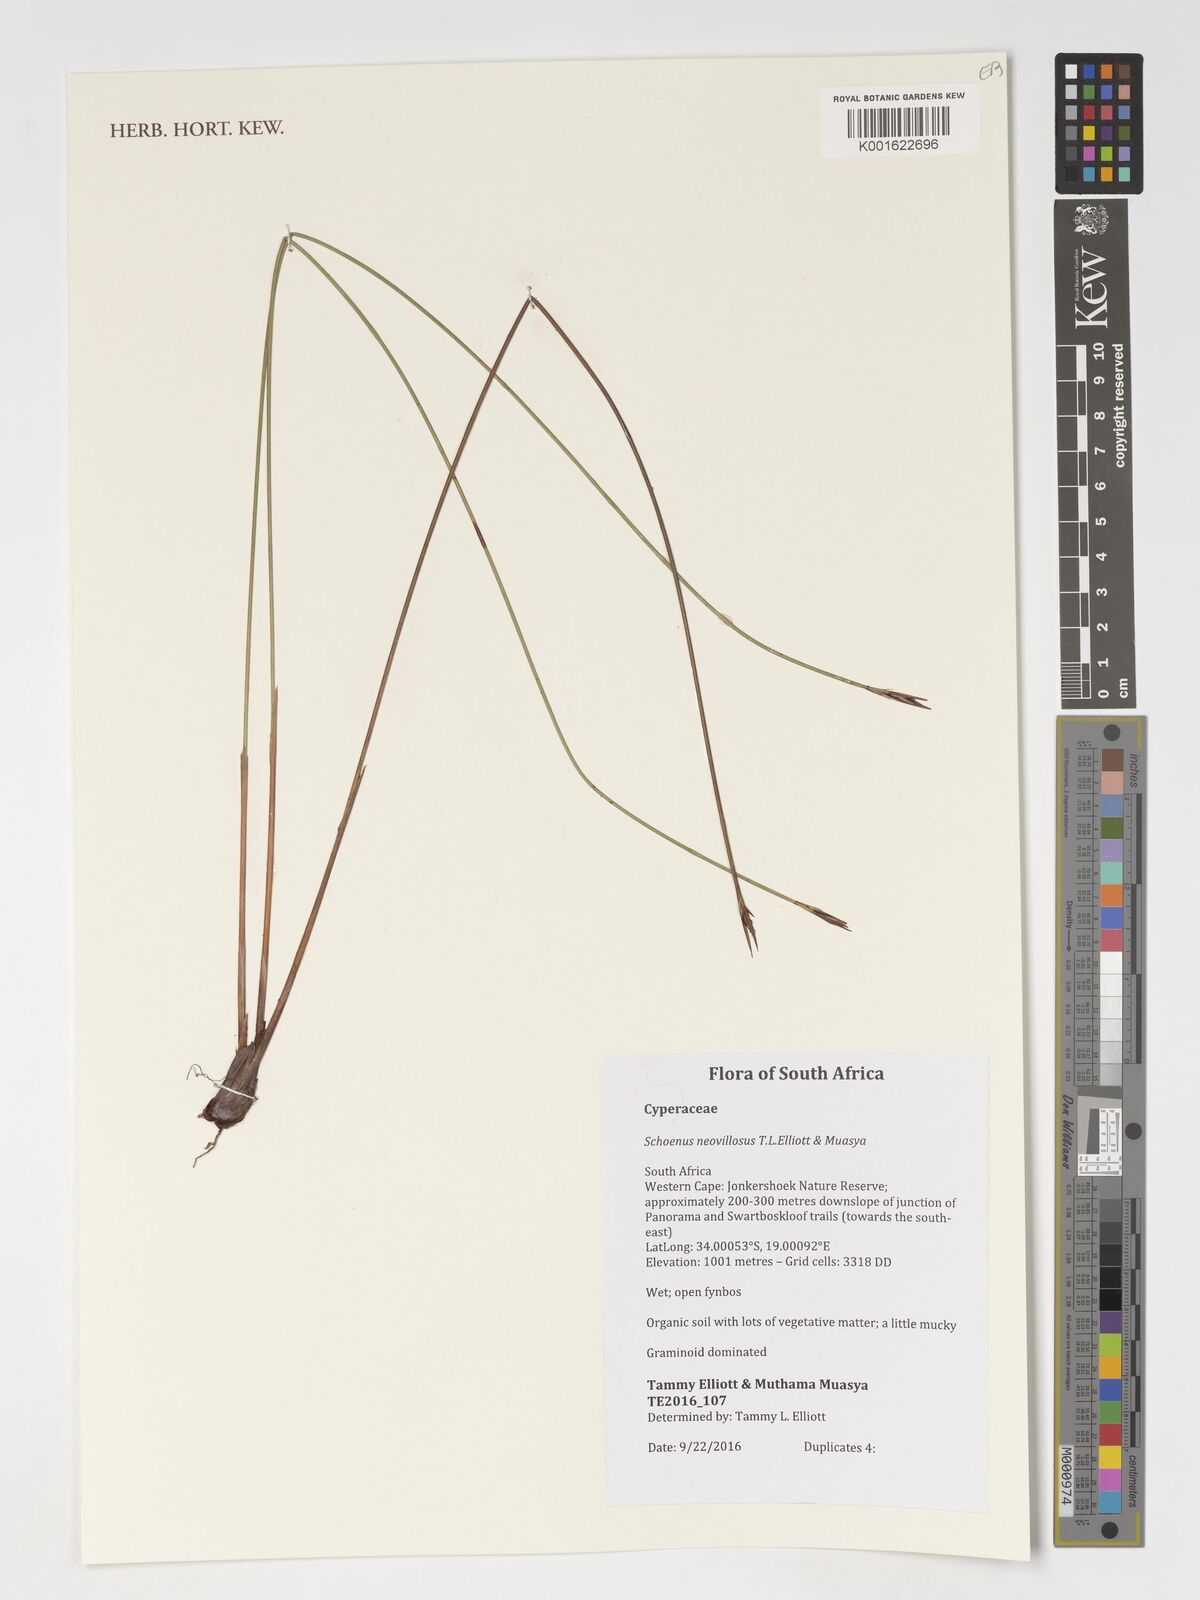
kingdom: Plantae
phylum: Tracheophyta
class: Liliopsida
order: Poales
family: Cyperaceae
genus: Schoenus
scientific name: Schoenus neovillosus
